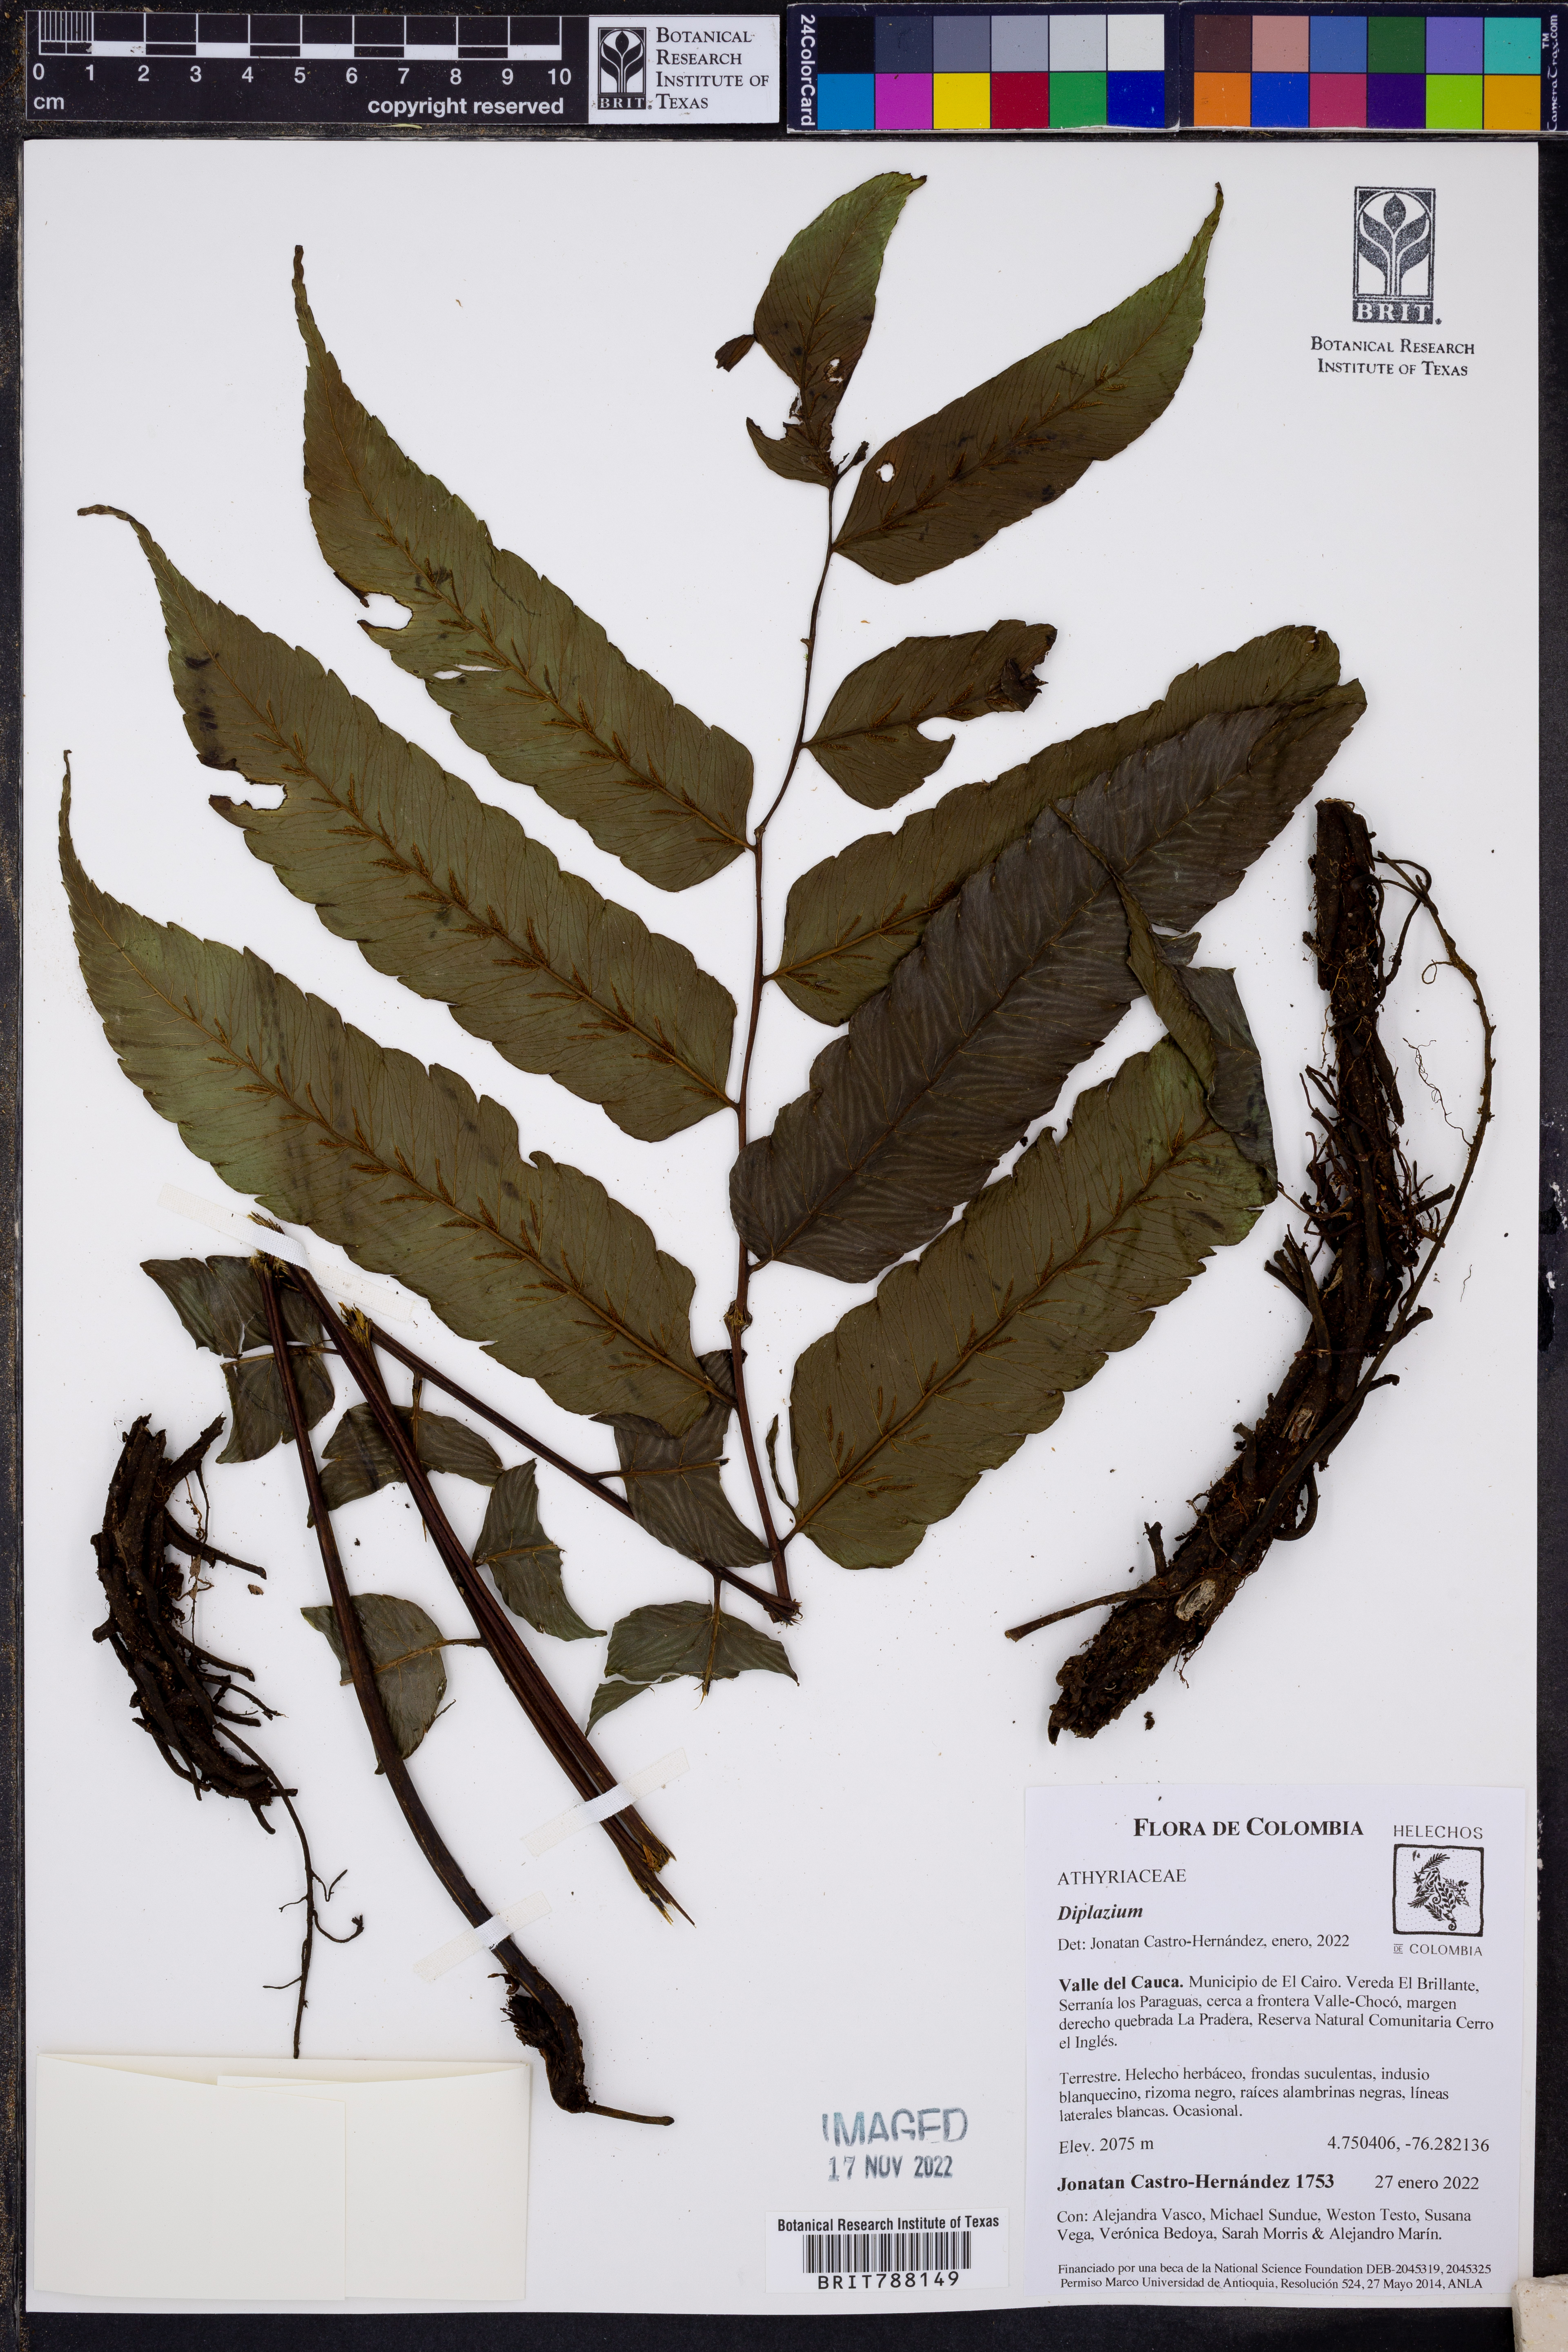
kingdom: Plantae
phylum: Tracheophyta
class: Polypodiopsida
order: Polypodiales
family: Athyriaceae
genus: Diplazium
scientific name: Diplazium moccennianum
